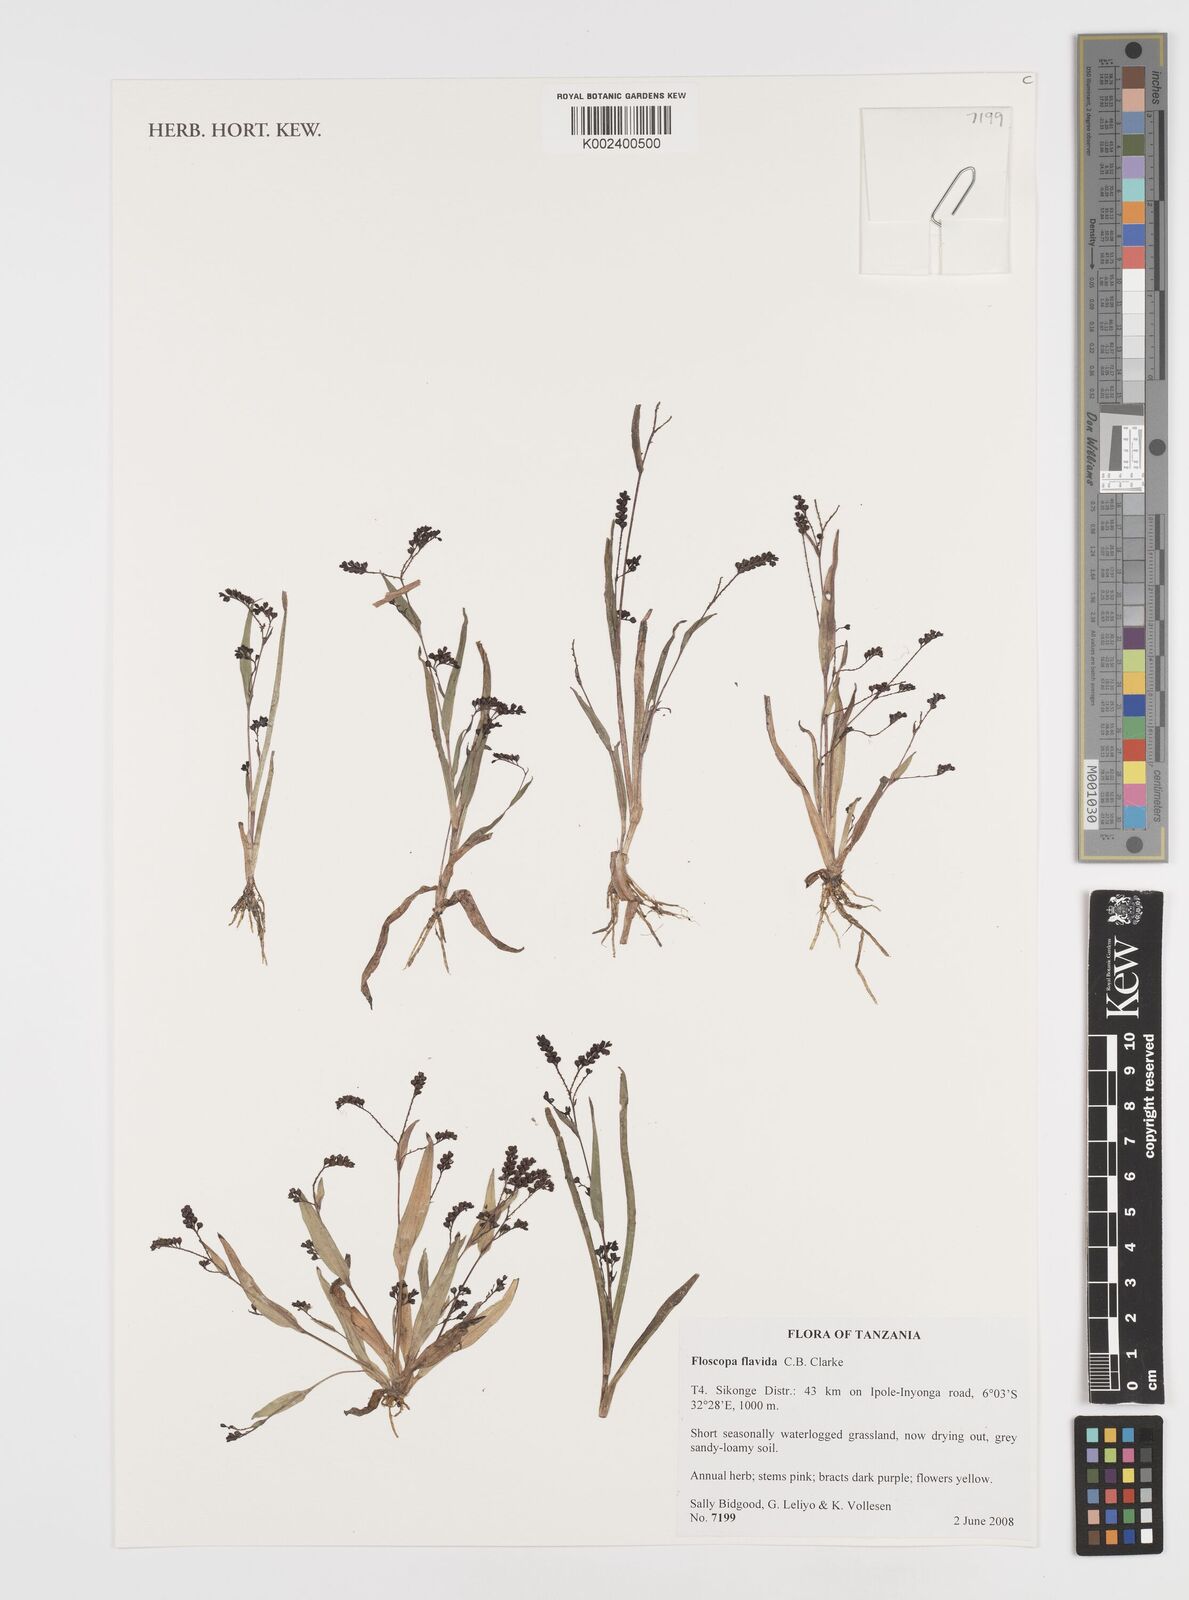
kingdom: Plantae
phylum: Tracheophyta
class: Liliopsida
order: Commelinales
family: Commelinaceae
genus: Floscopa
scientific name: Floscopa flavida
